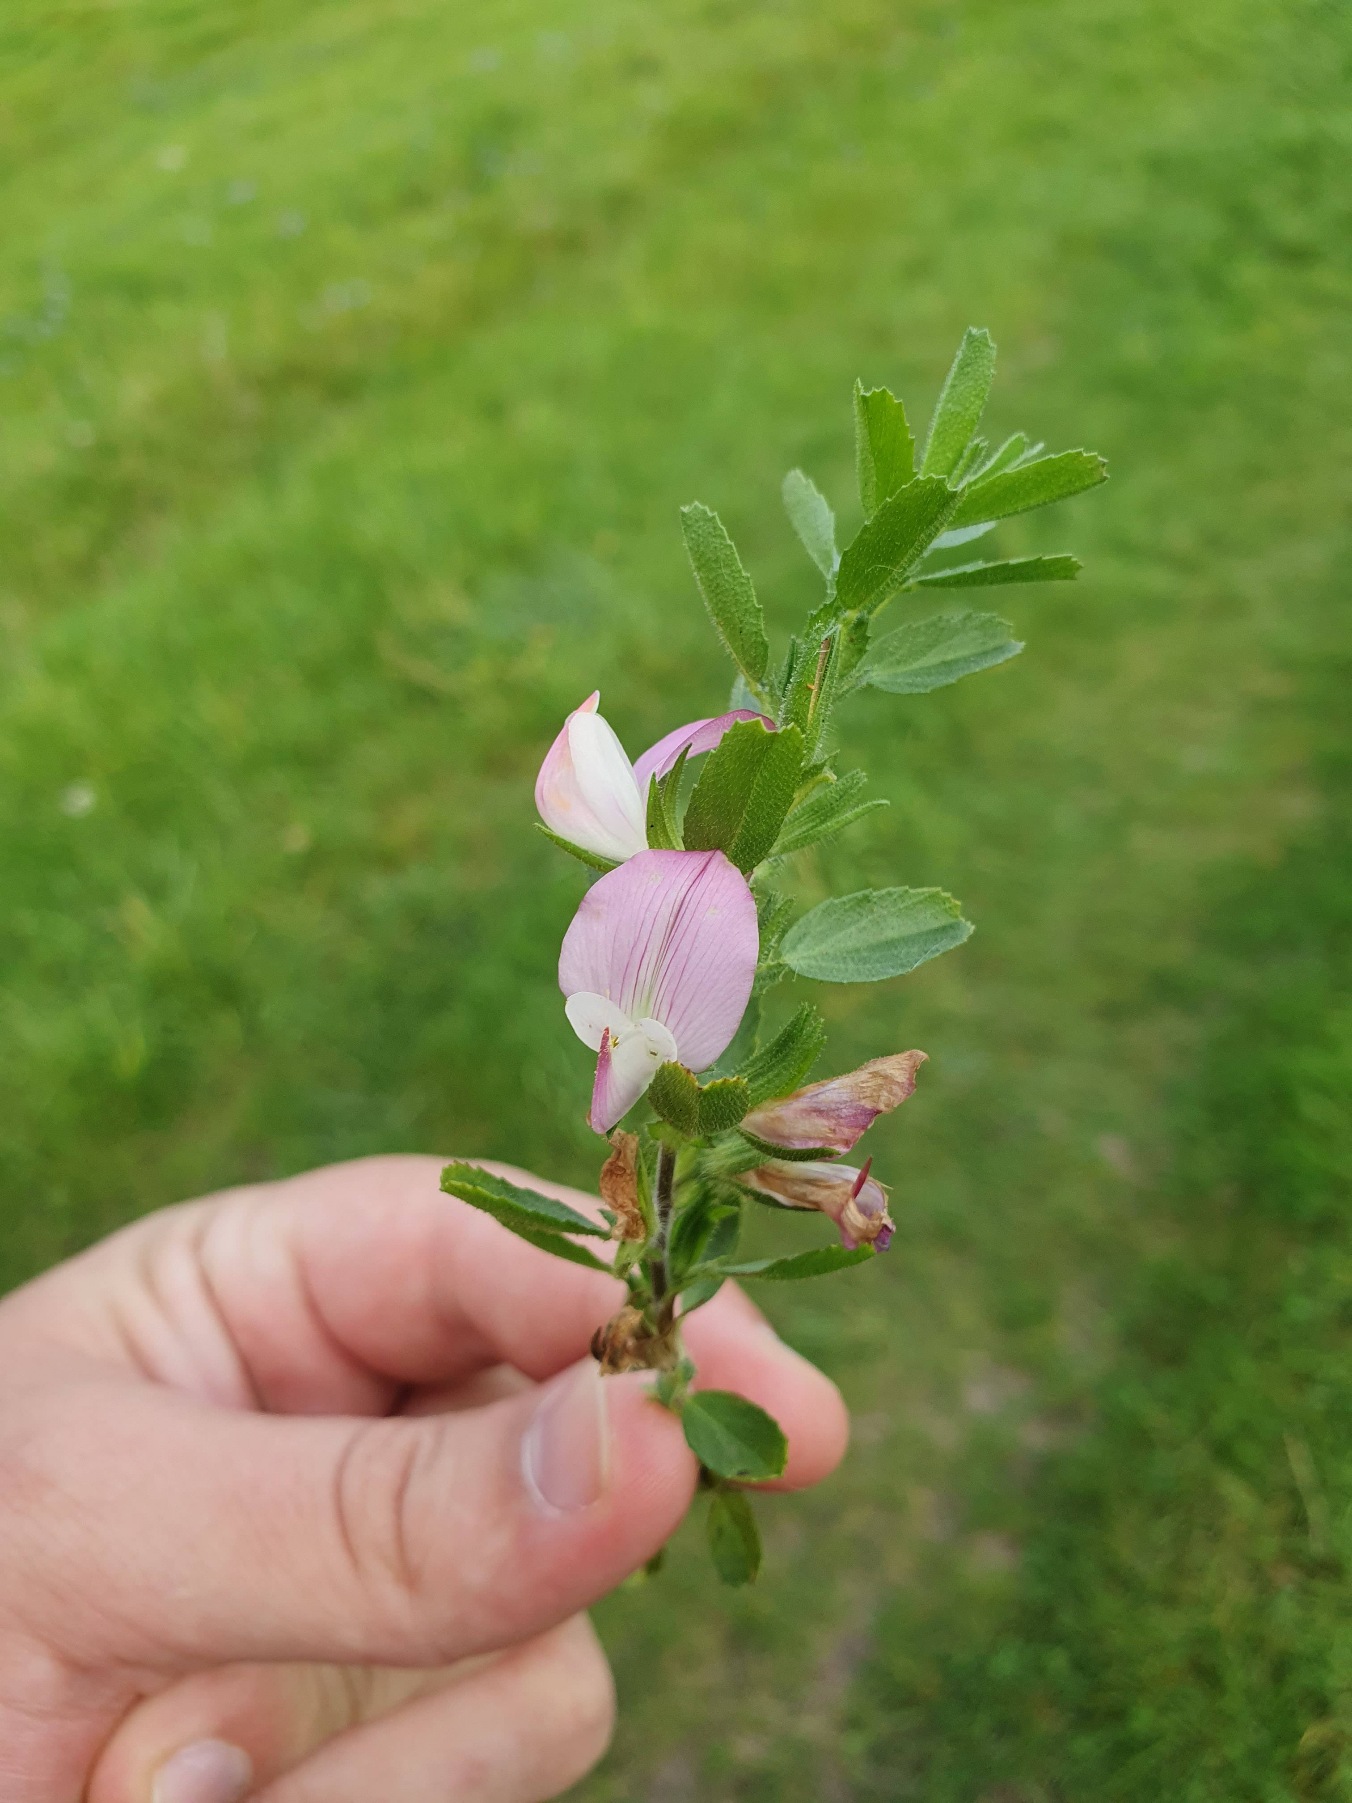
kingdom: Plantae
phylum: Tracheophyta
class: Magnoliopsida
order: Fabales
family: Fabaceae
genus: Ononis
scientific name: Ononis spinosa
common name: Krageklo
